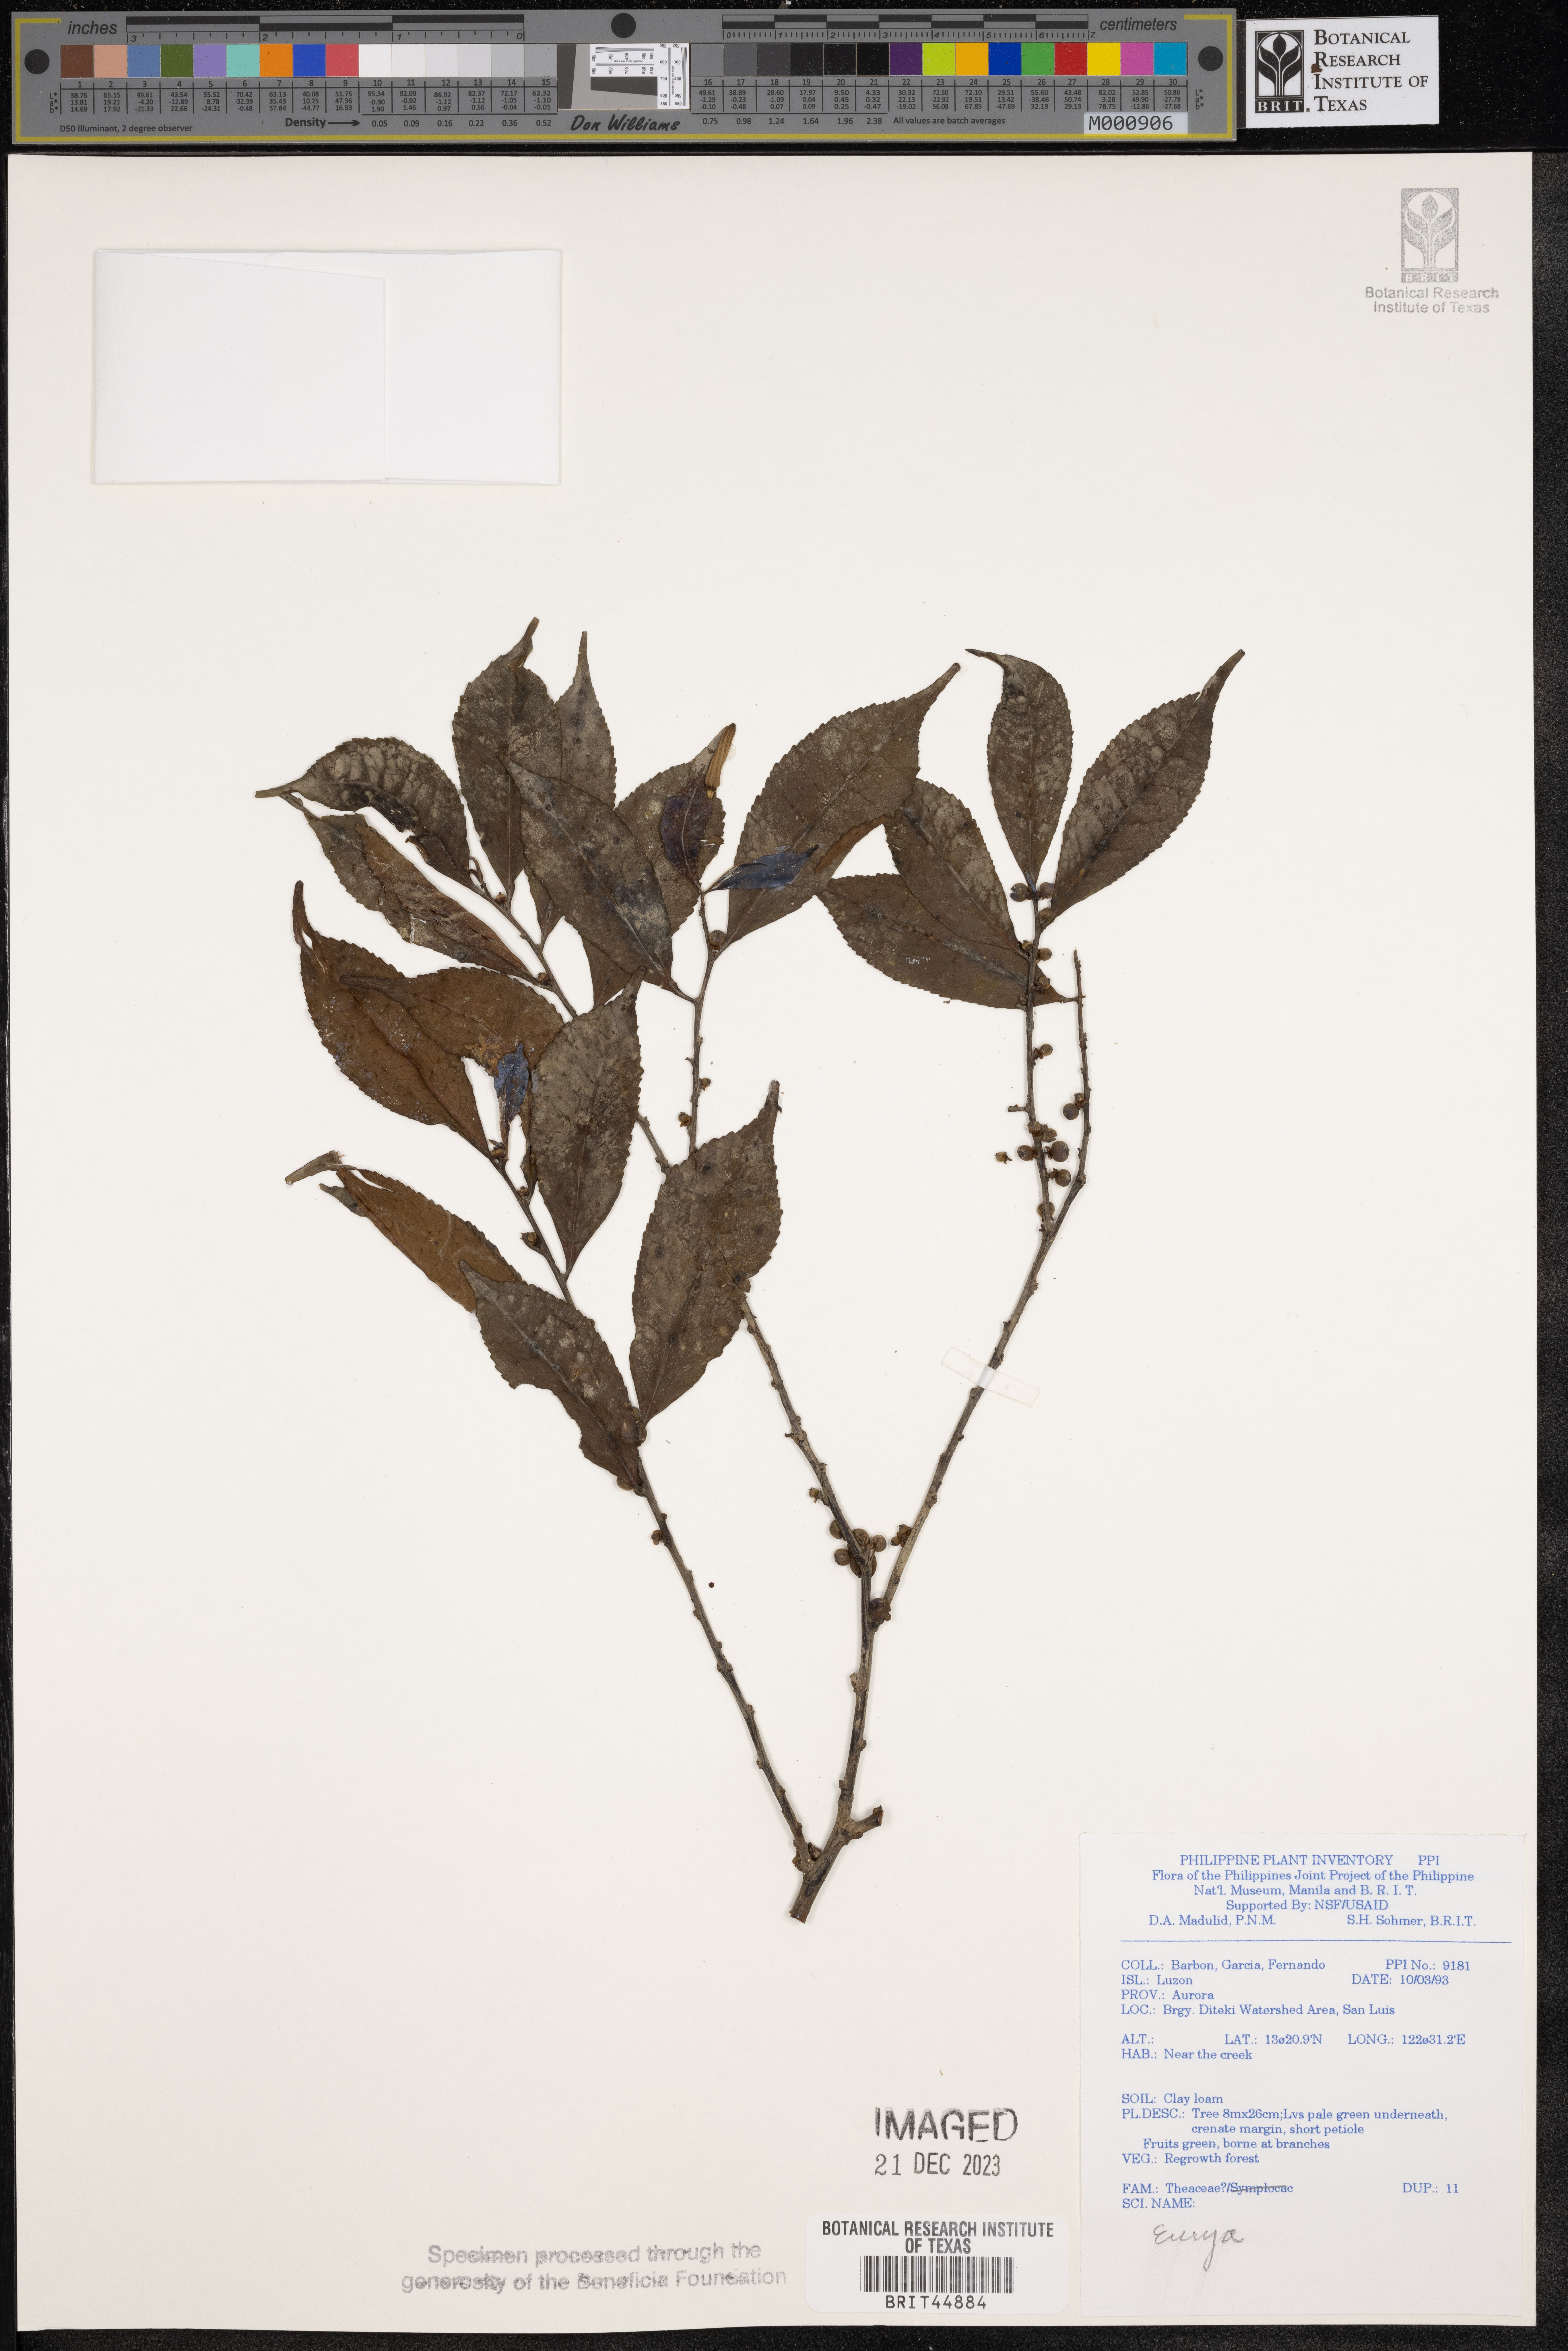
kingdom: Plantae
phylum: Tracheophyta
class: Magnoliopsida
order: Ericales
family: Pentaphylacaceae
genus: Eurya
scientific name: Eurya
